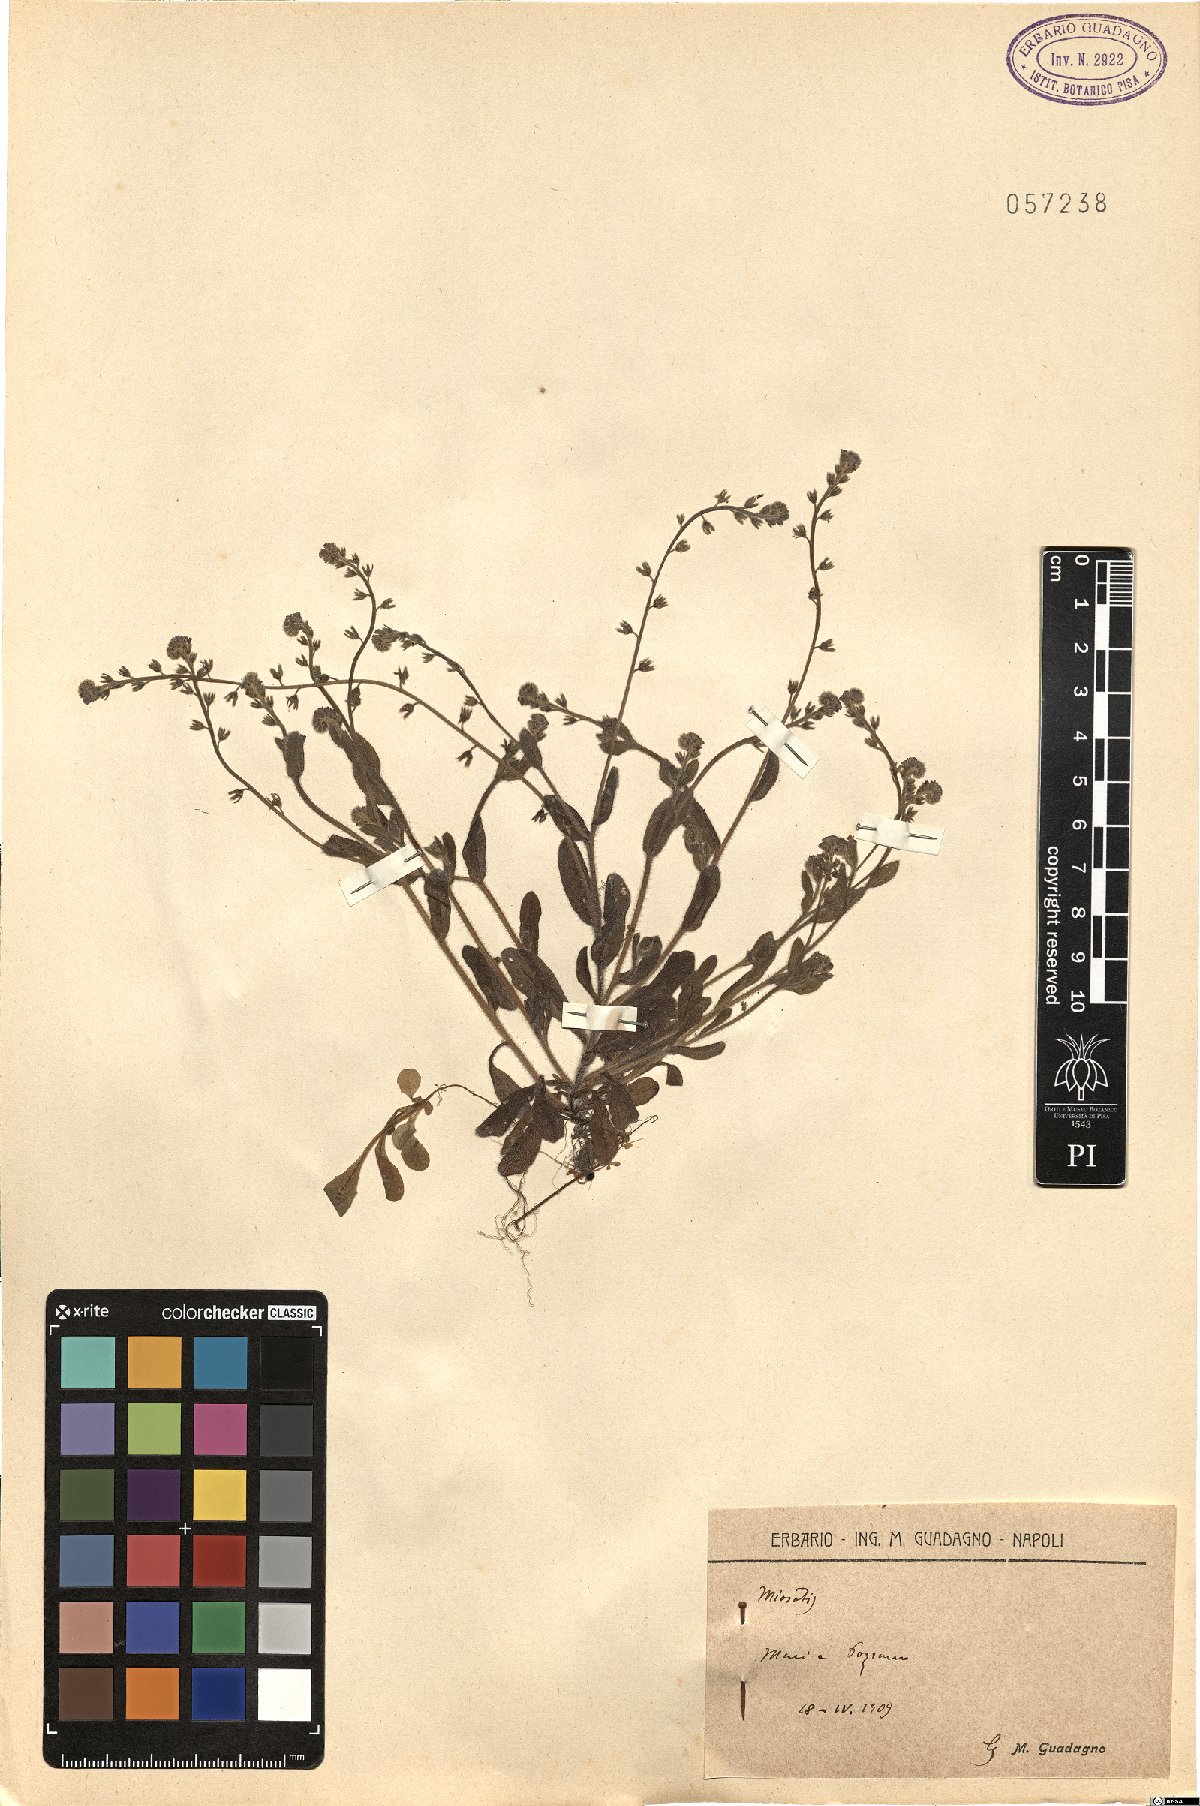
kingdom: Plantae
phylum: Tracheophyta
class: Magnoliopsida
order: Boraginales
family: Boraginaceae
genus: Myosotis
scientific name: Myosotis
